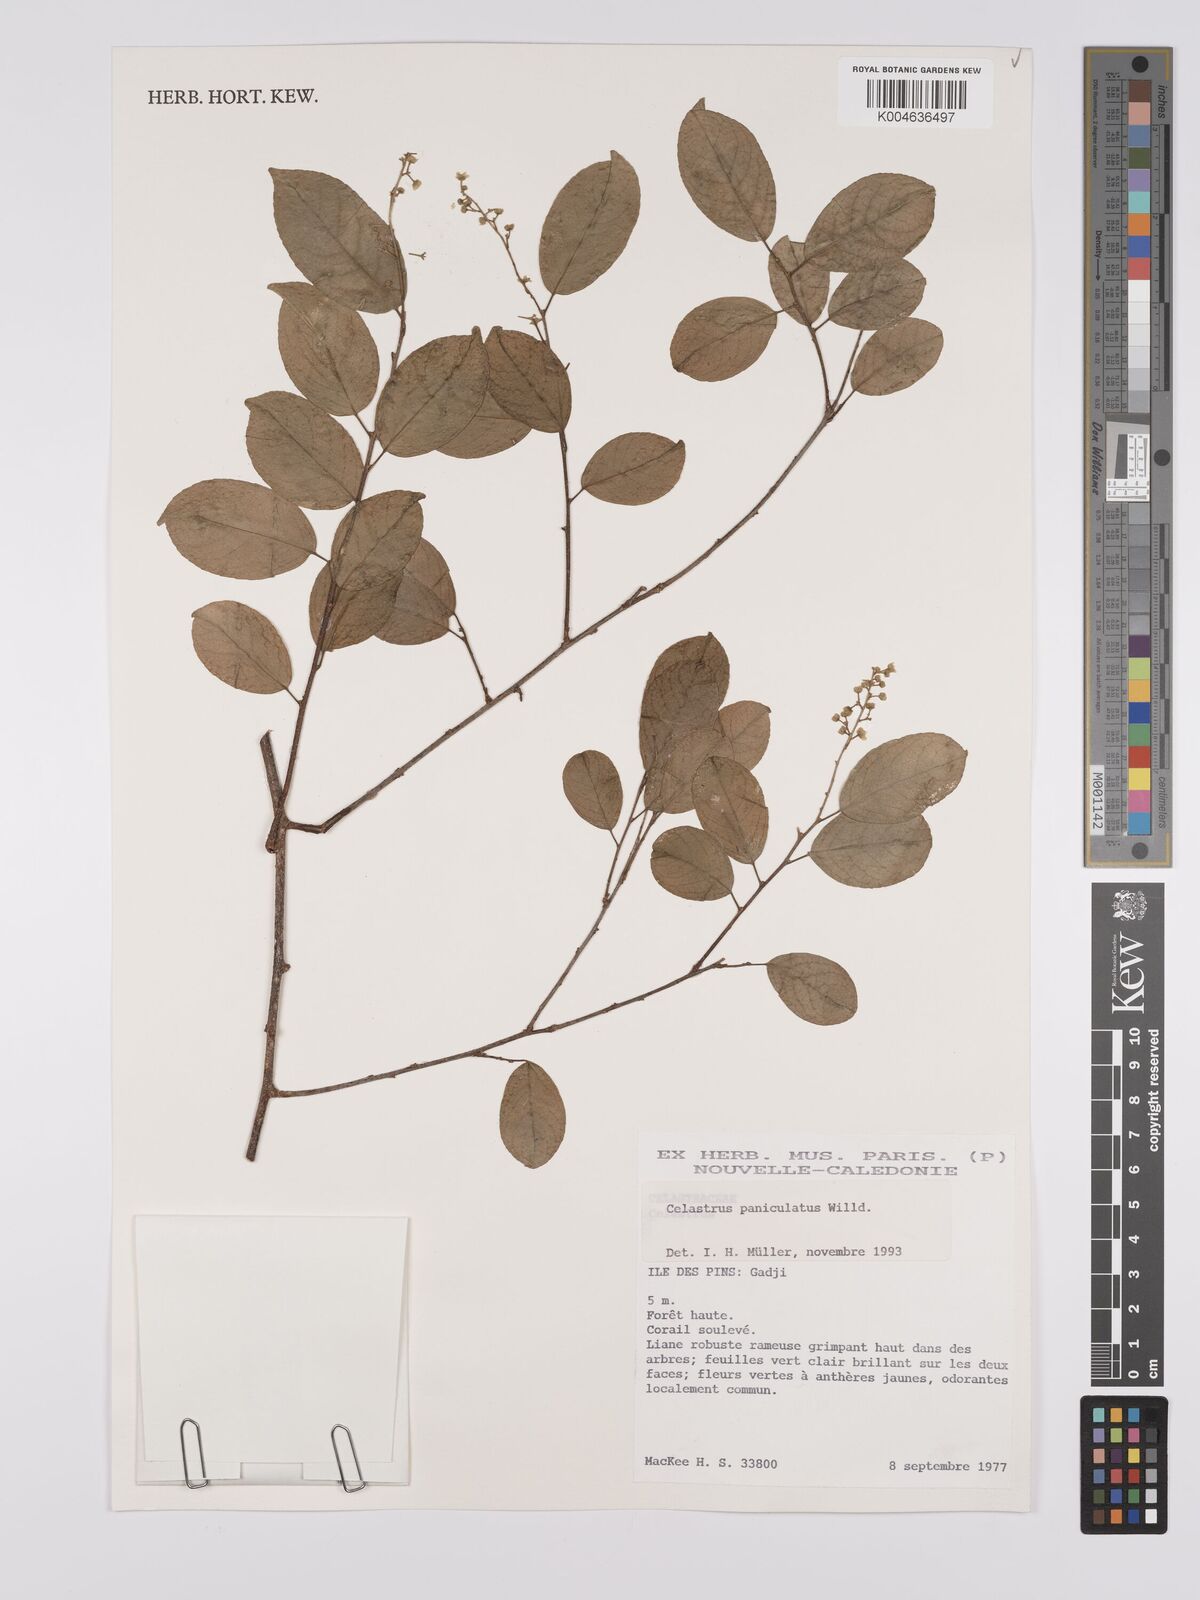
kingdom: Plantae
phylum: Tracheophyta
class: Magnoliopsida
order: Celastrales
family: Celastraceae
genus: Celastrus
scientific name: Celastrus paniculatus
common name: Oriental bittersweet; staff vine
